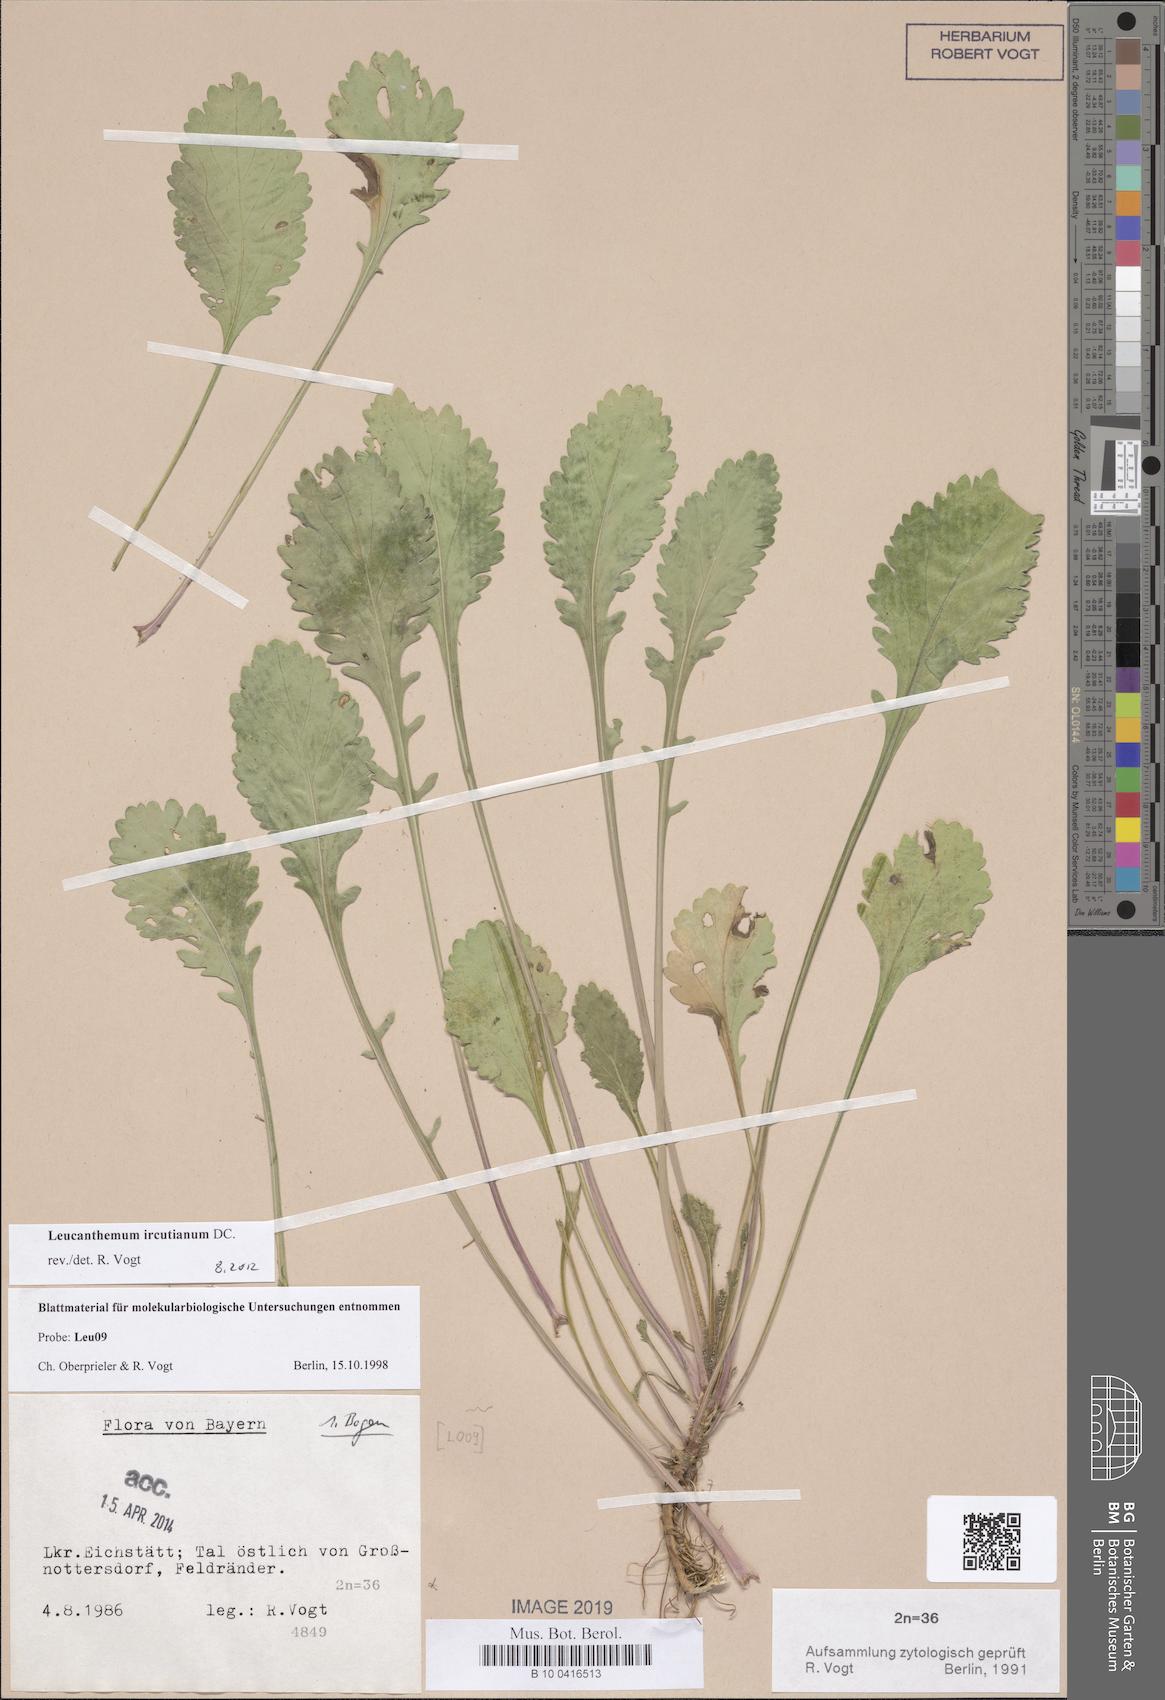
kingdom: Plantae
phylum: Tracheophyta
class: Magnoliopsida
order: Asterales
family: Asteraceae
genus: Leucanthemum
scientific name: Leucanthemum ircutianum
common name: Daisy
